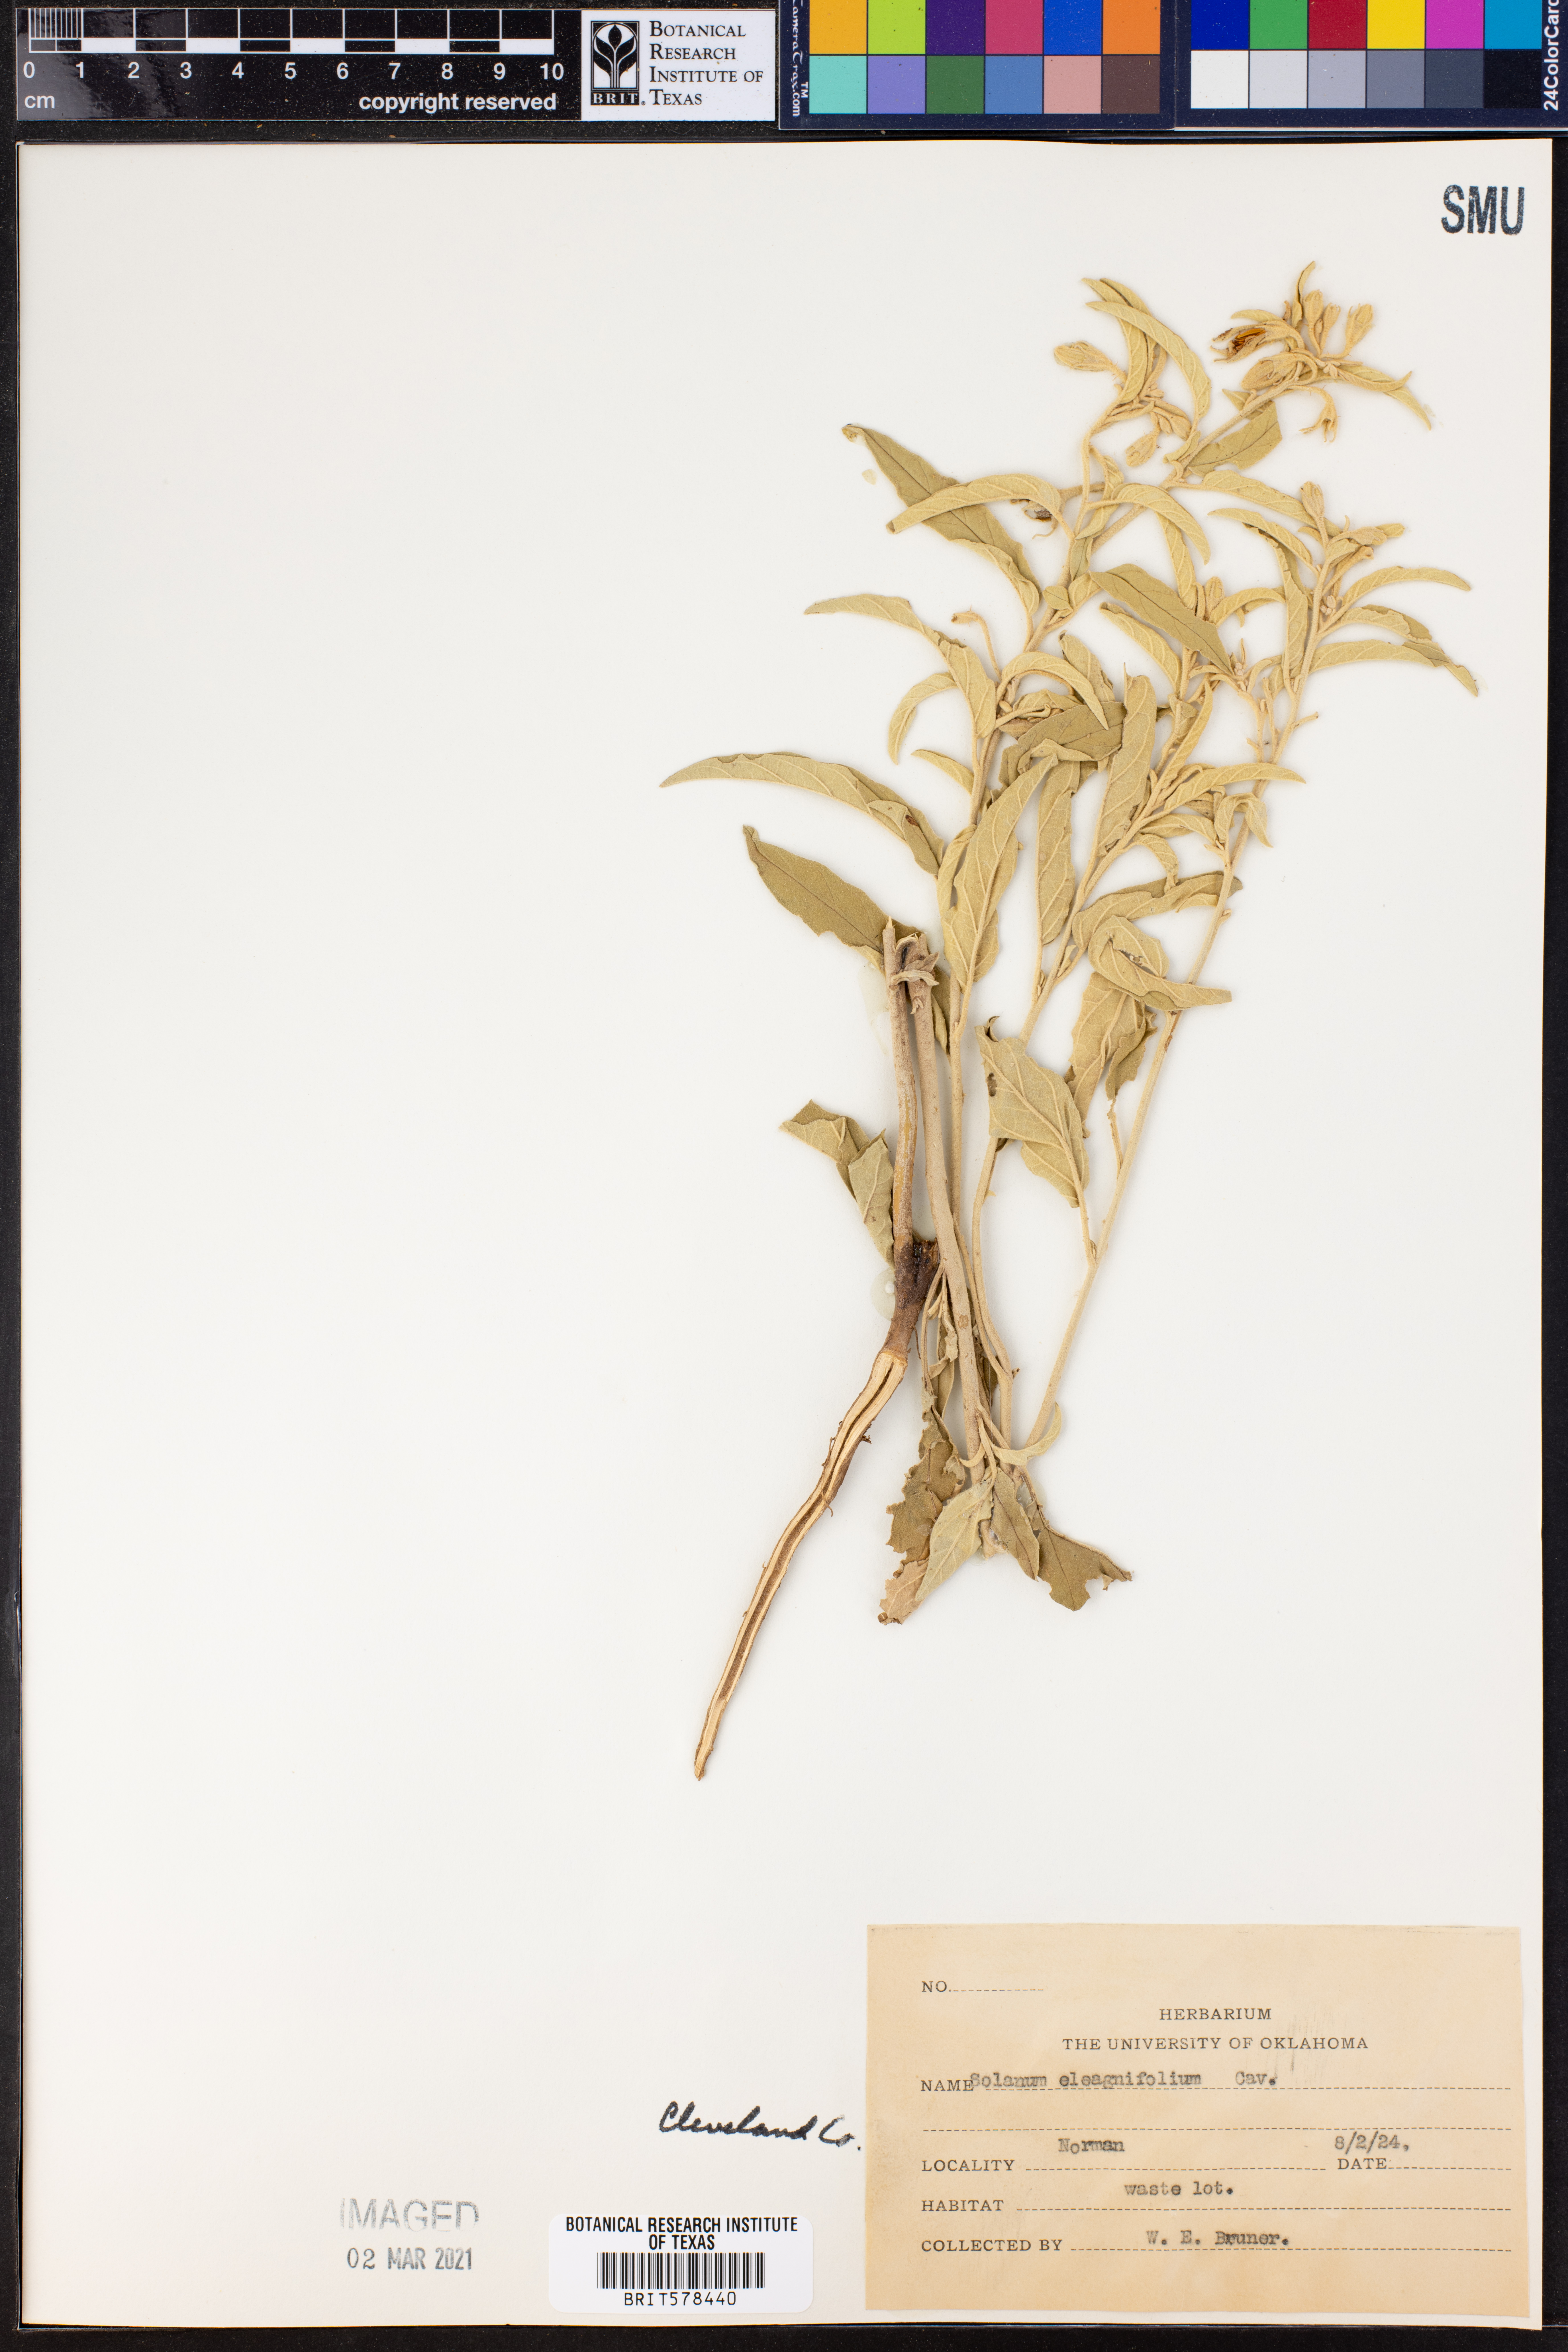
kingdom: Plantae
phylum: Tracheophyta
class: Magnoliopsida
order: Solanales
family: Solanaceae
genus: Solanum
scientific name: Solanum elaeagnifolium
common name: Silverleaf nightshade
